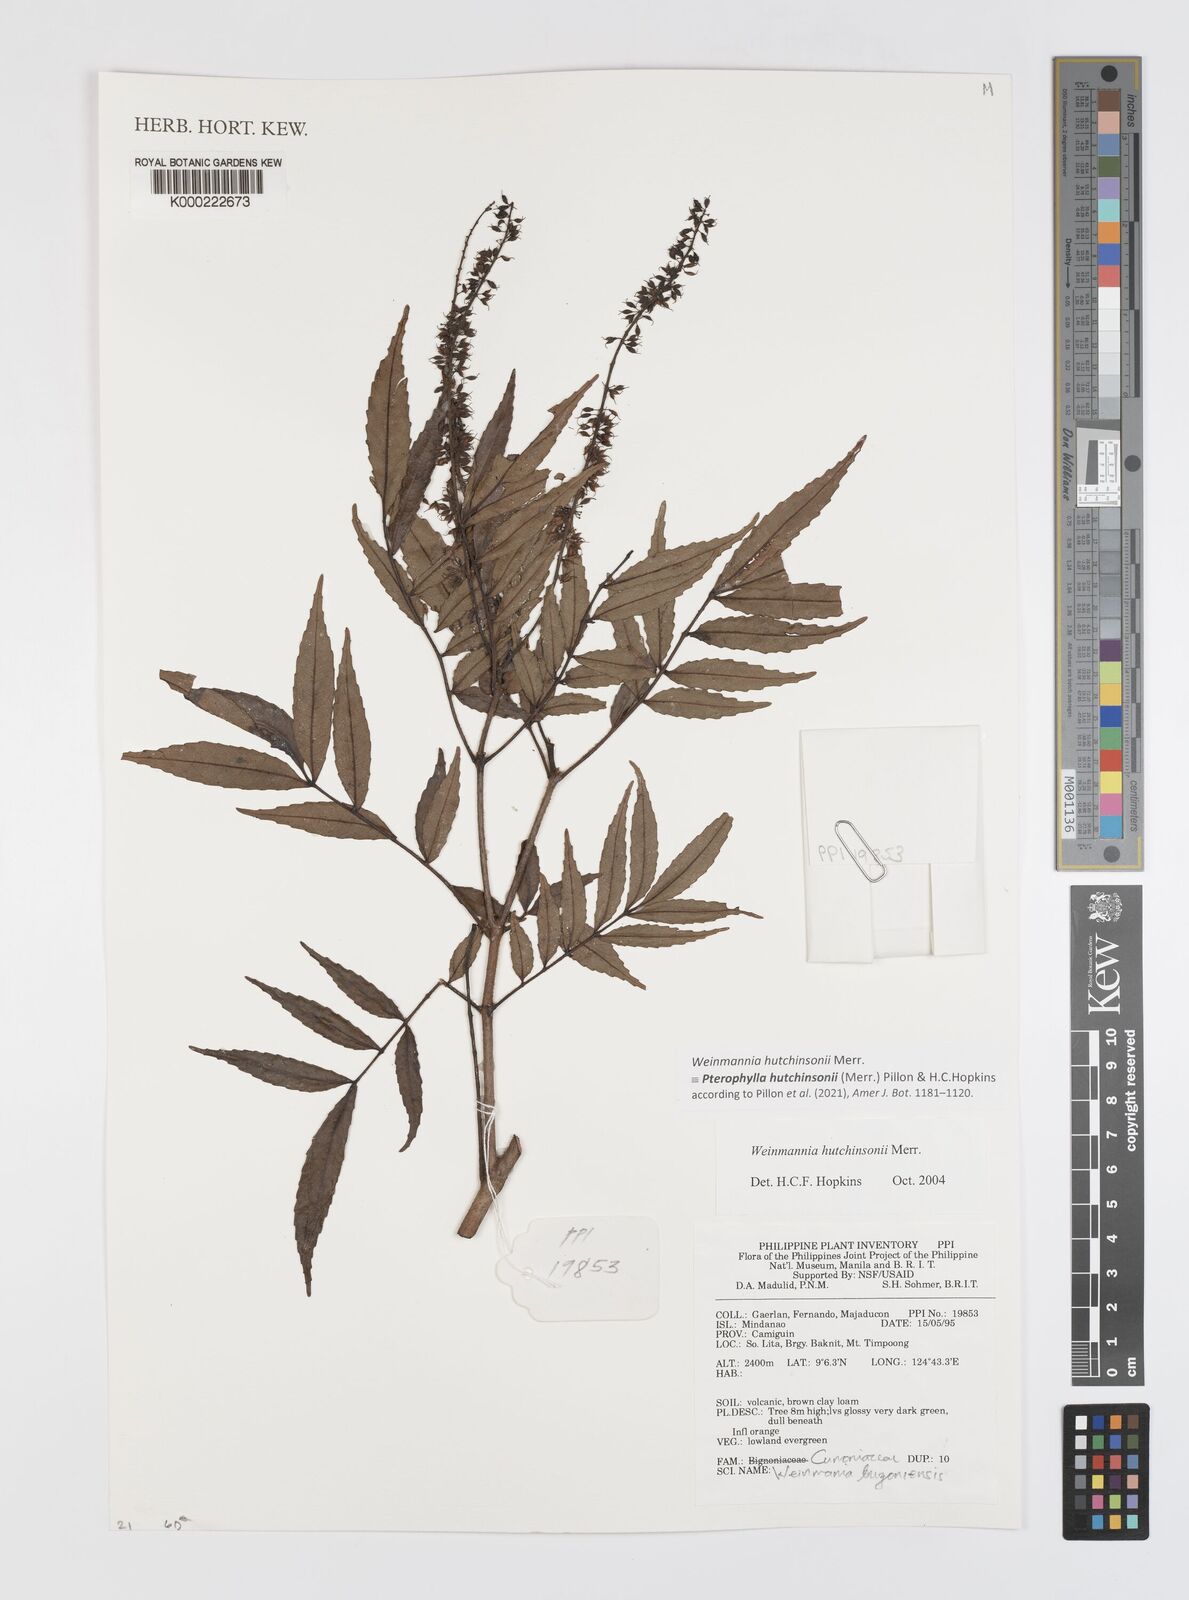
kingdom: Plantae
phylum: Tracheophyta
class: Magnoliopsida
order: Oxalidales
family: Cunoniaceae
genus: Pterophylla
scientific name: Pterophylla hutchinsonii
